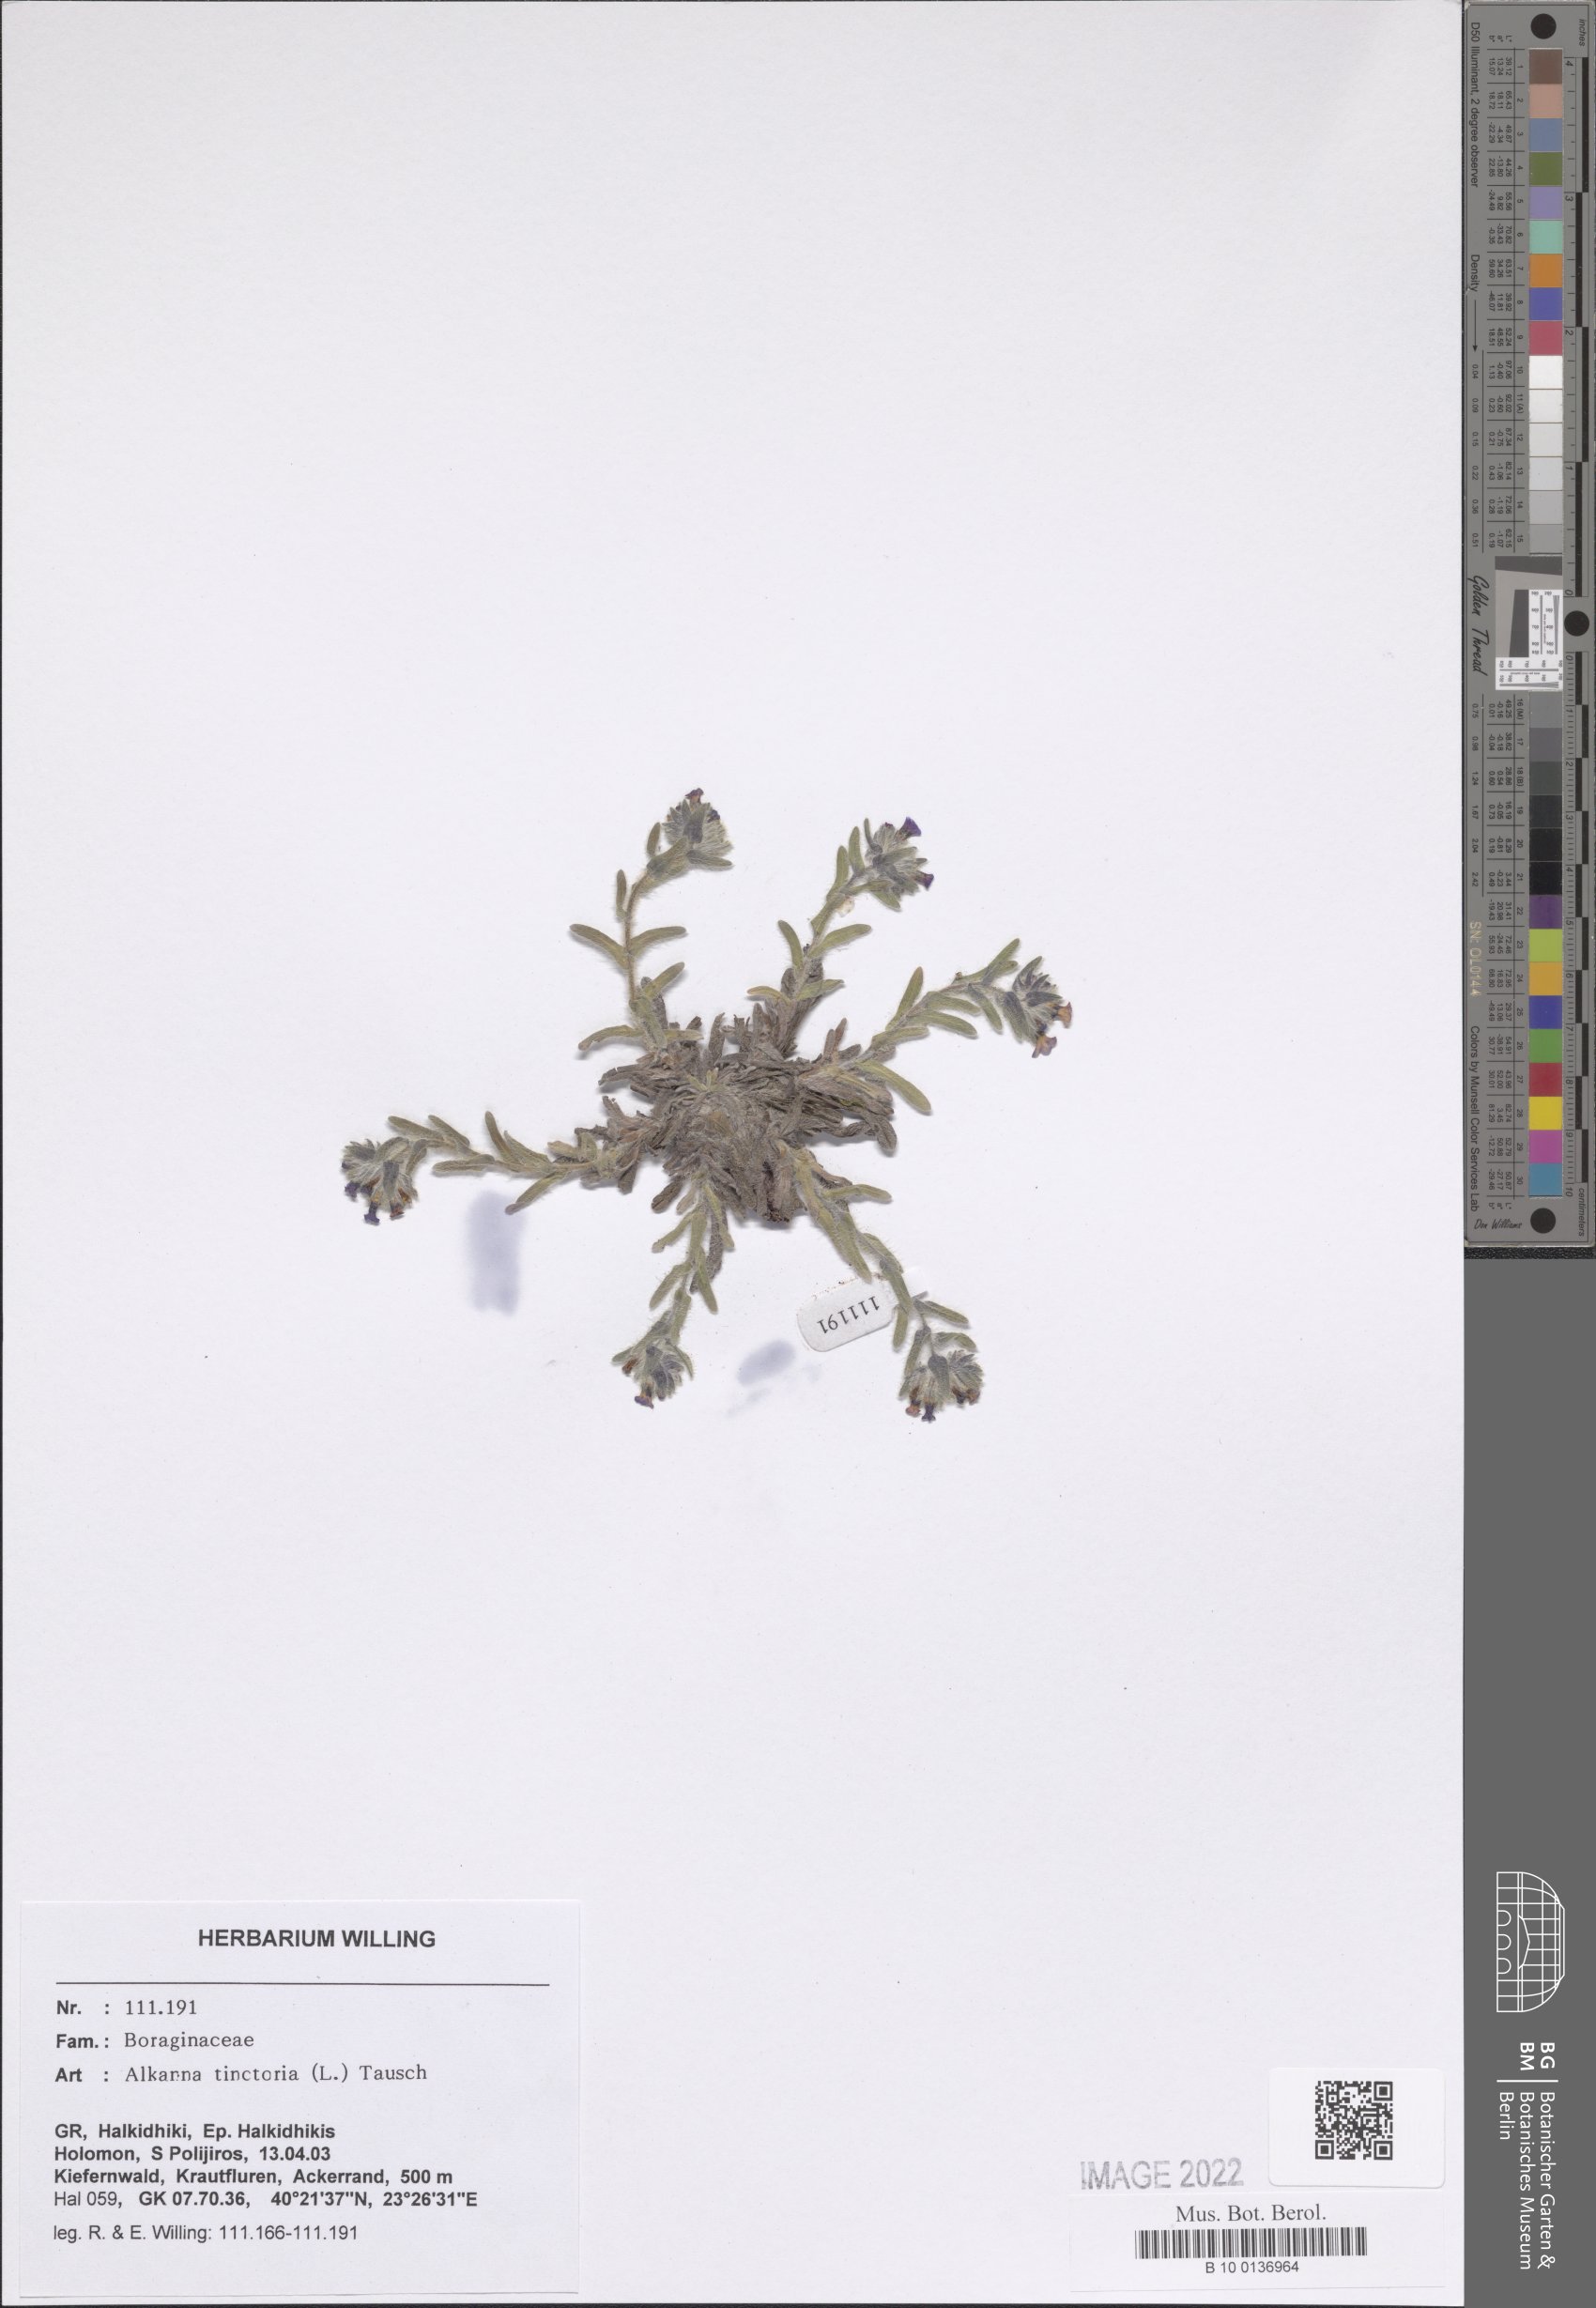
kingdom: Plantae
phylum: Tracheophyta
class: Magnoliopsida
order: Boraginales
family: Boraginaceae
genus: Alkanna
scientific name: Alkanna tinctoria
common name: Dyer's-alkanet
